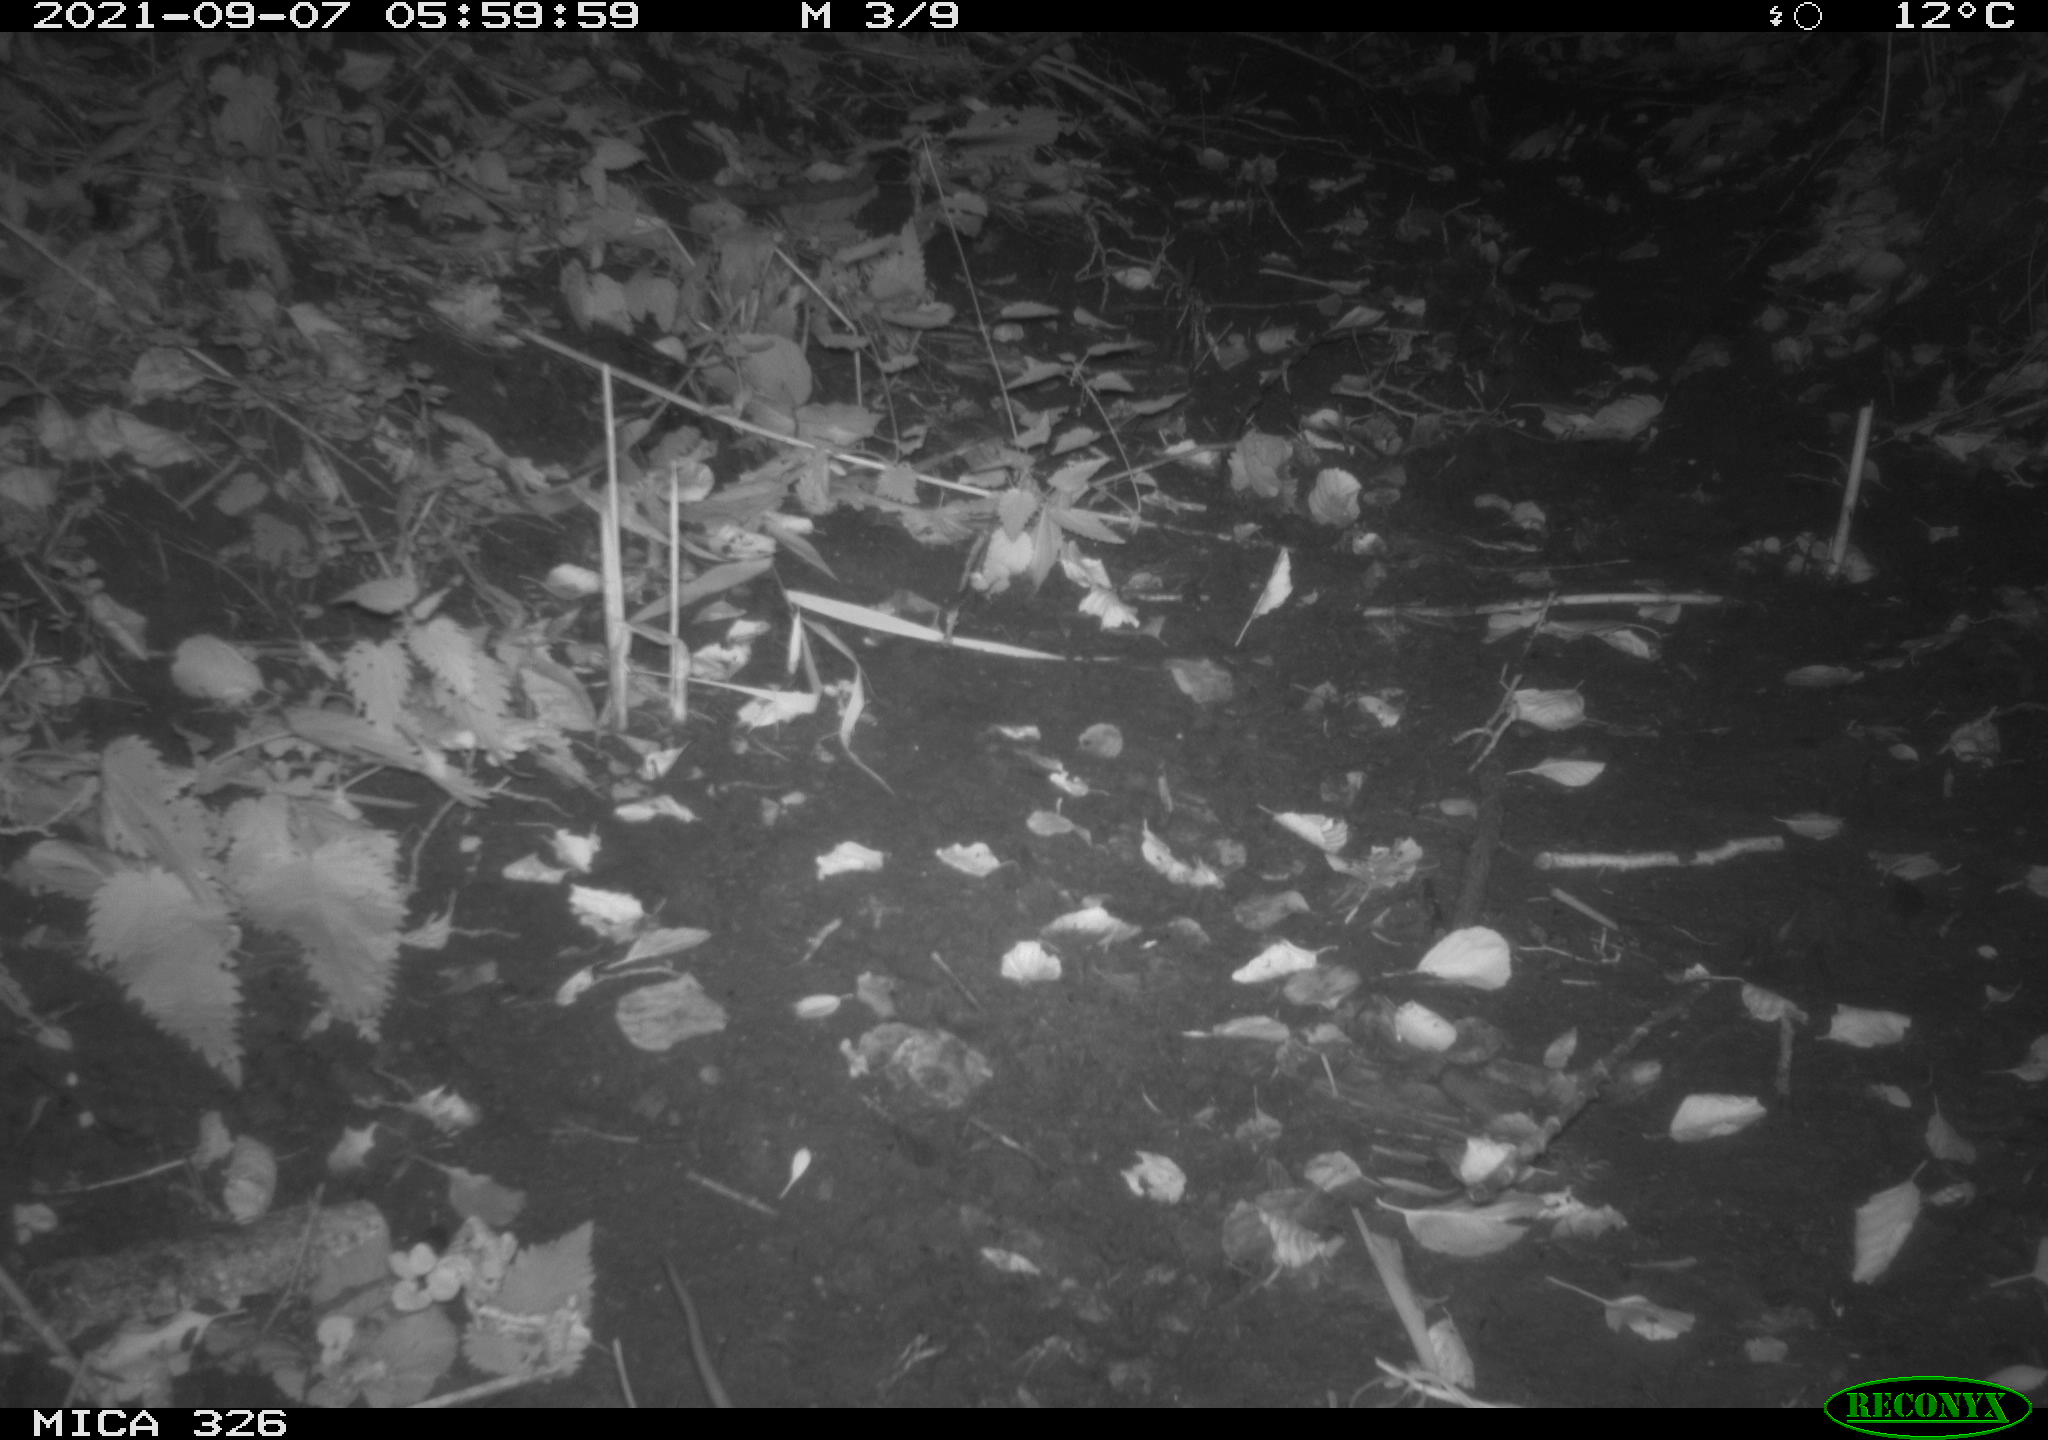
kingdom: Animalia
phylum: Chordata
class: Mammalia
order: Rodentia
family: Muridae
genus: Rattus
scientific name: Rattus norvegicus
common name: Brown rat
